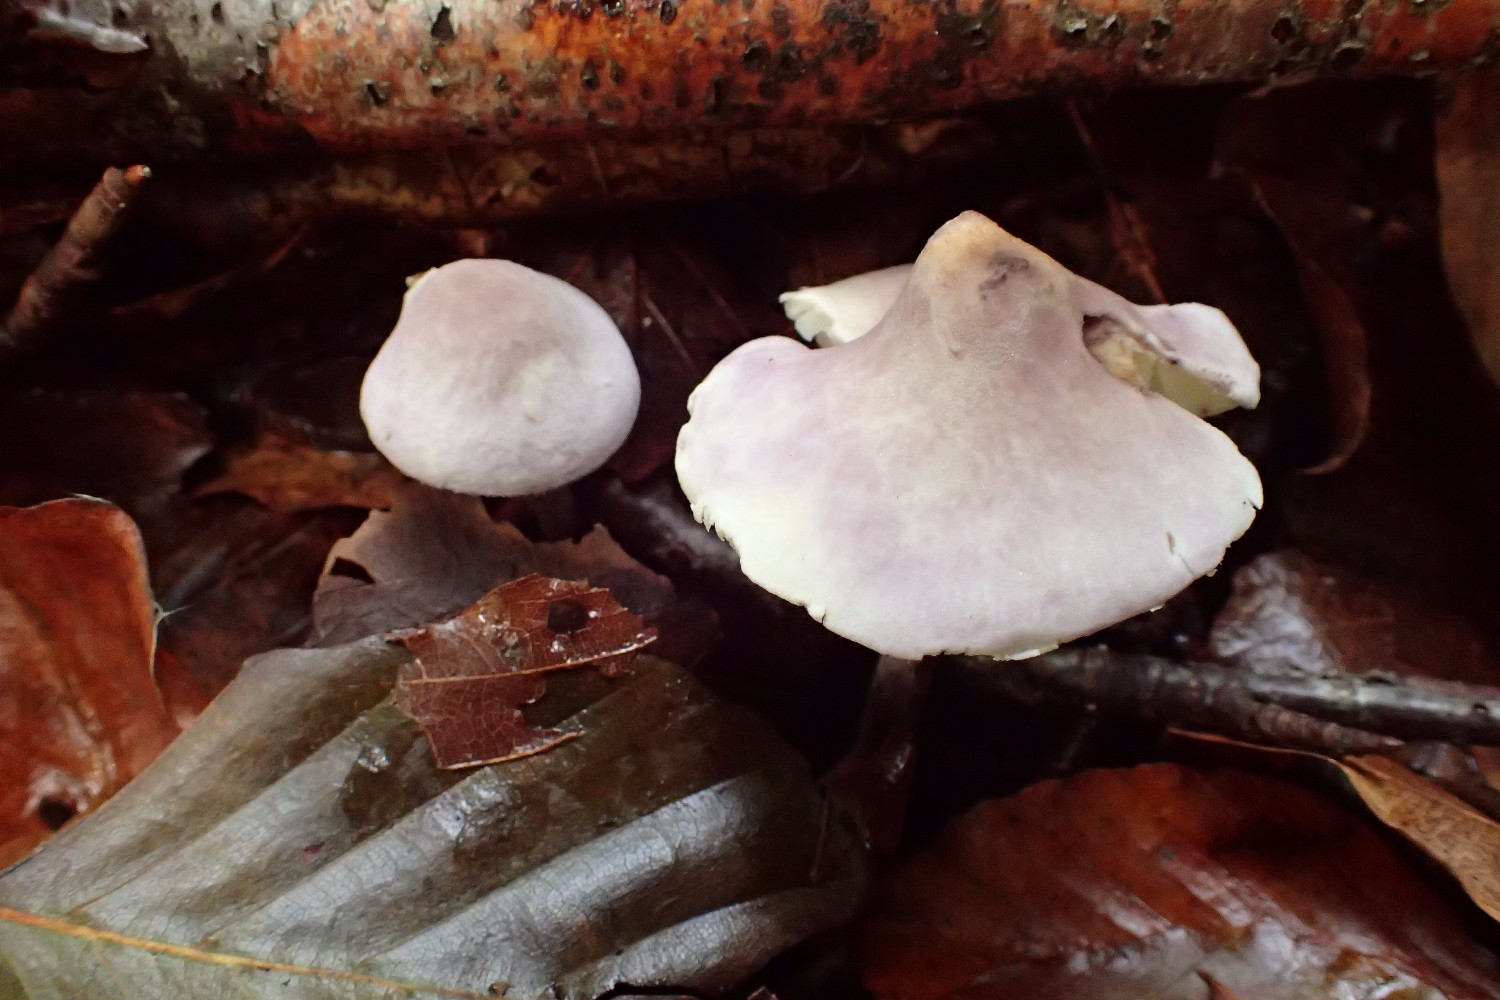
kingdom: Fungi
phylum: Basidiomycota
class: Agaricomycetes
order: Agaricales
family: Agaricaceae
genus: Cystolepiota
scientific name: Cystolepiota bucknallii
